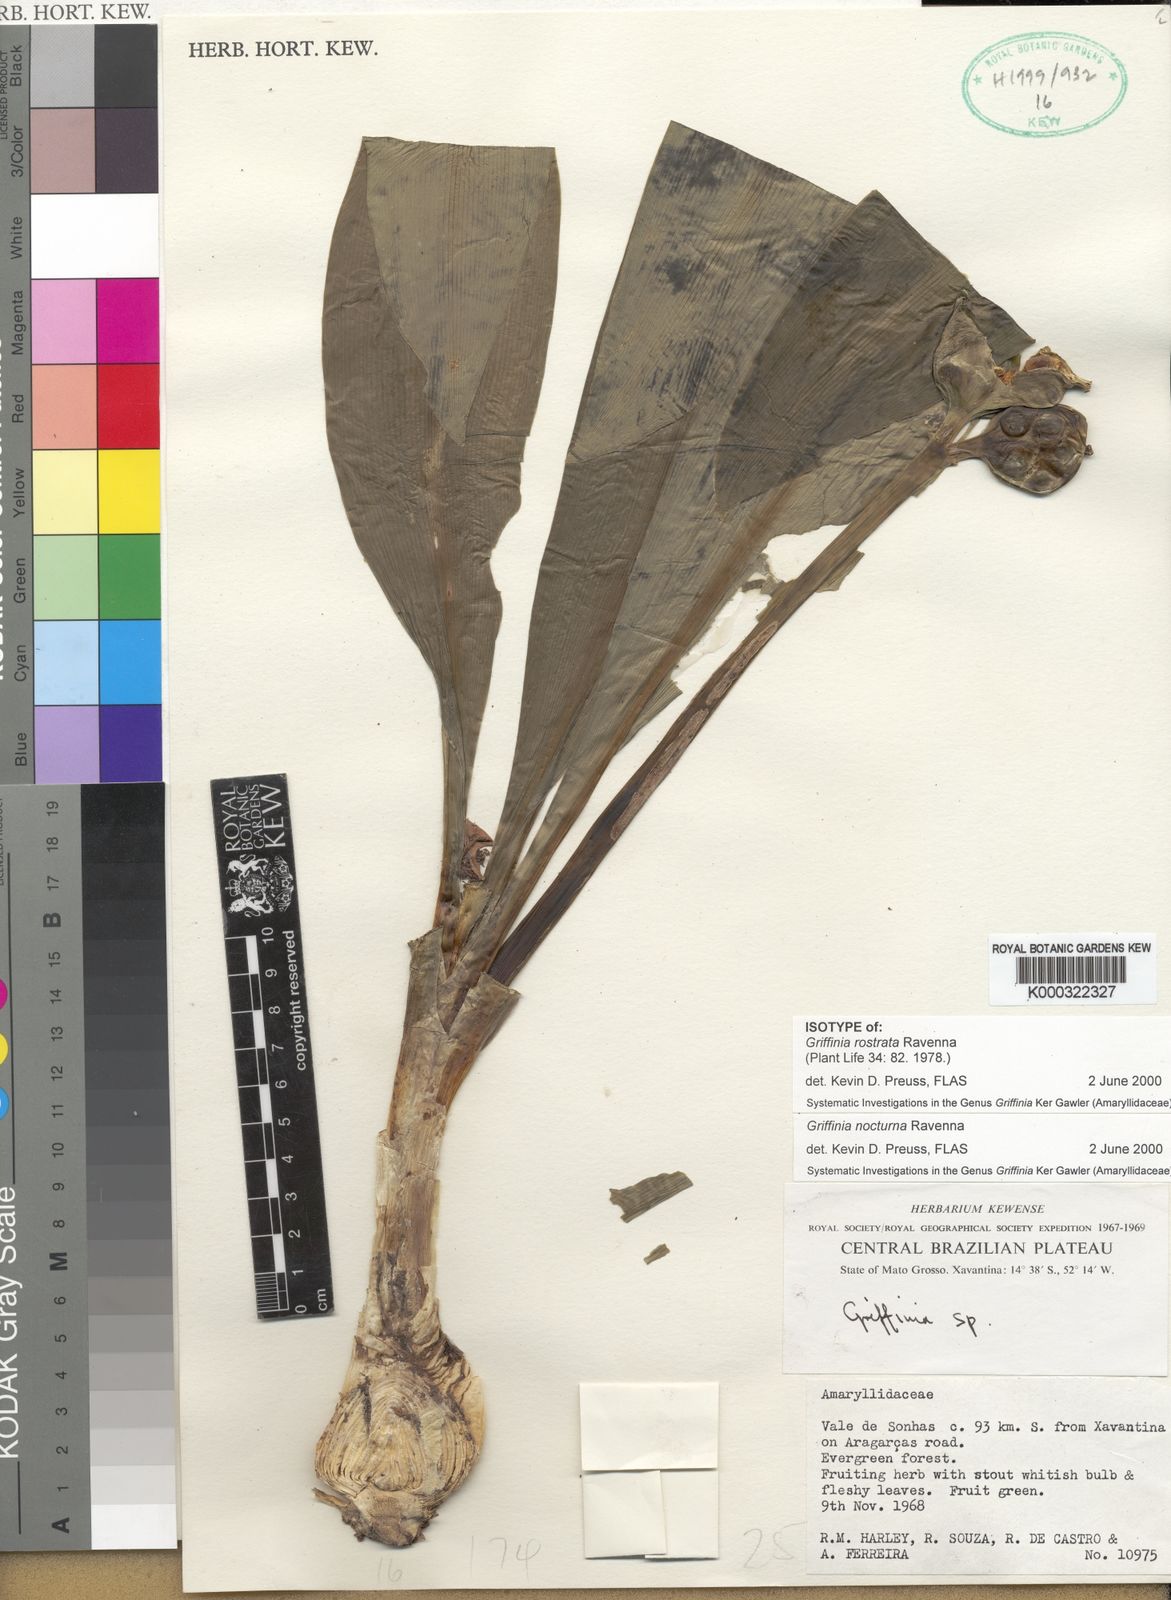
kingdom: Plantae
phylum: Tracheophyta
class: Liliopsida
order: Asparagales
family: Amaryllidaceae
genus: Griffinia
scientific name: Griffinia nocturna
